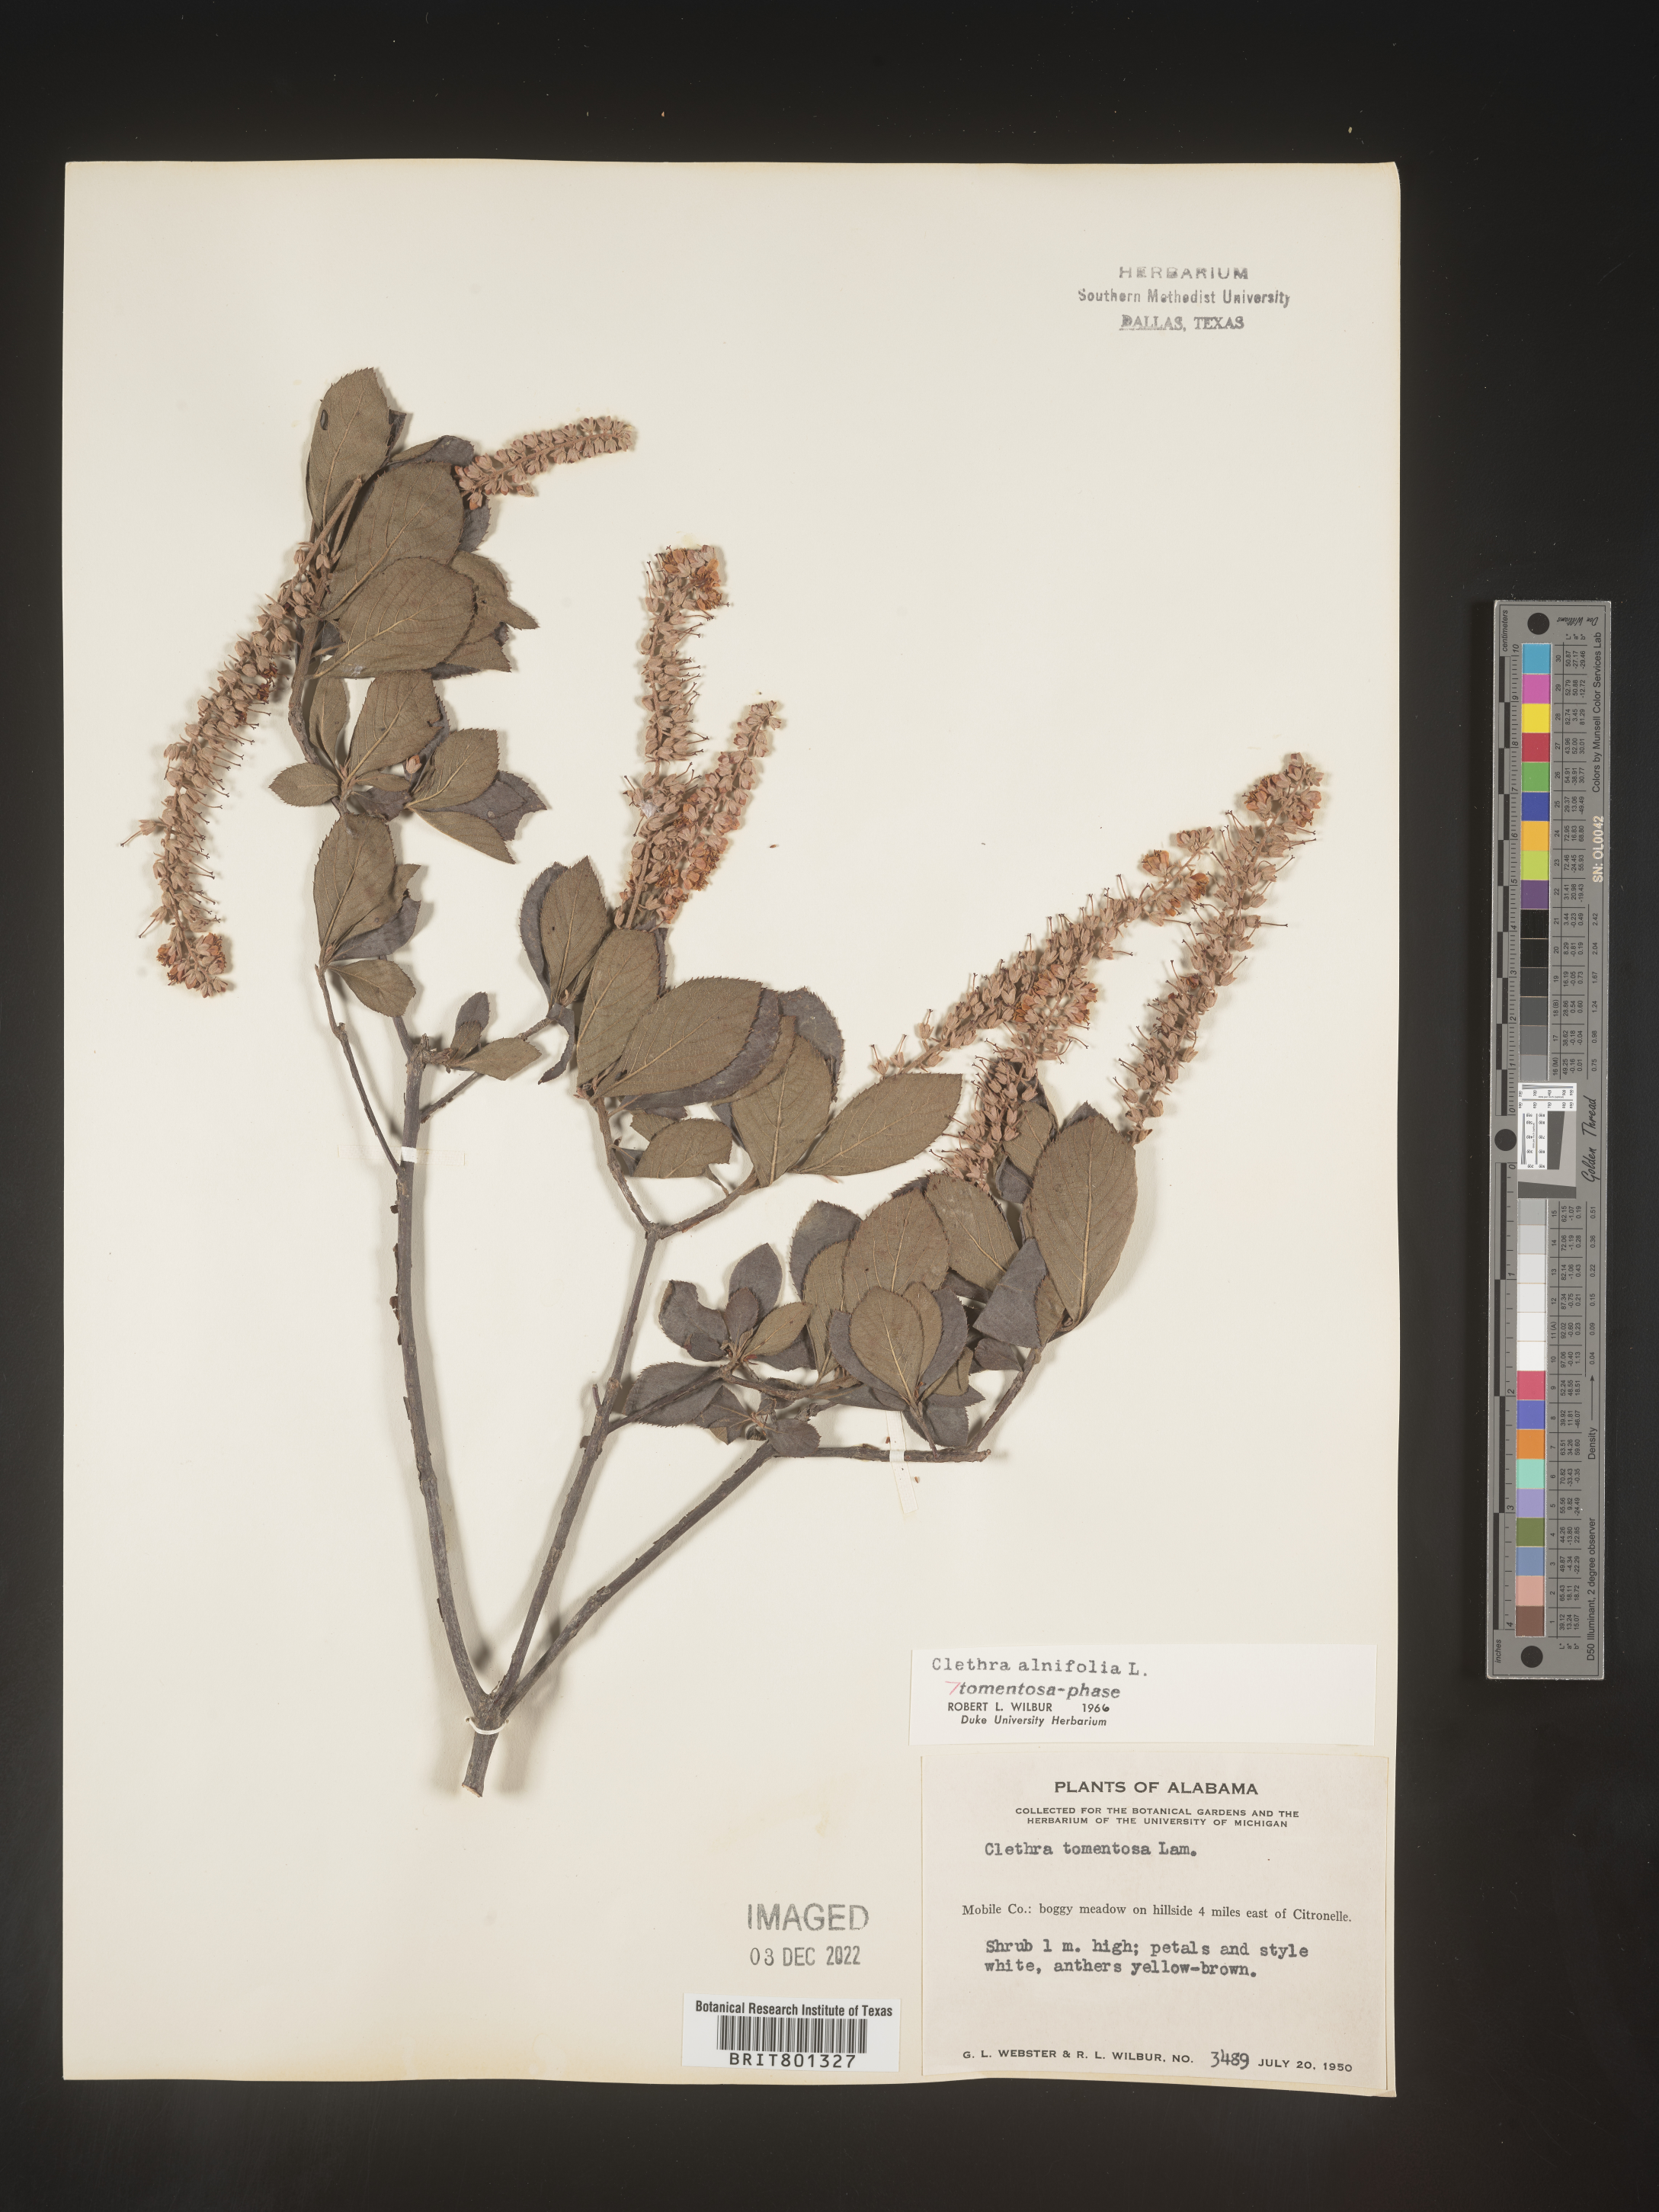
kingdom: Plantae
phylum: Tracheophyta
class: Magnoliopsida
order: Ericales
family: Clethraceae
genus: Clethra
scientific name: Clethra alnifolia
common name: Sweet pepperbush
